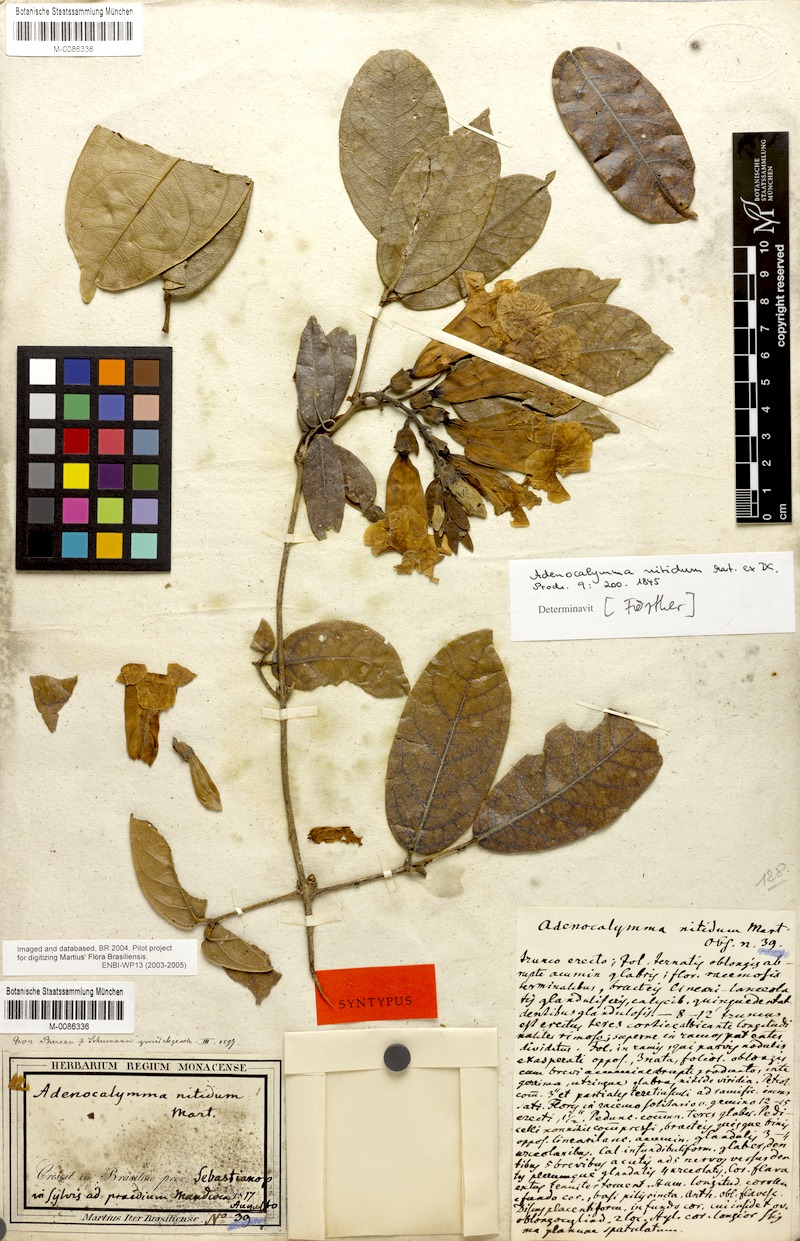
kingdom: Plantae
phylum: Tracheophyta
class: Magnoliopsida
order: Lamiales
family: Bignoniaceae
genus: Adenocalymma
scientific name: Adenocalymma acutissimum
